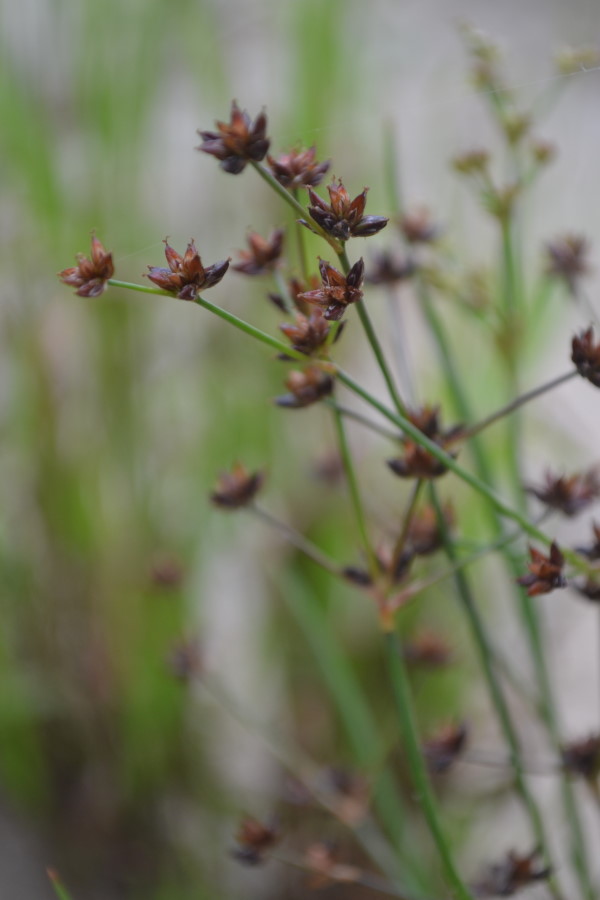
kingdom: Plantae
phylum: Tracheophyta
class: Liliopsida
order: Poales
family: Juncaceae
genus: Juncus
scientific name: Juncus articulatus
